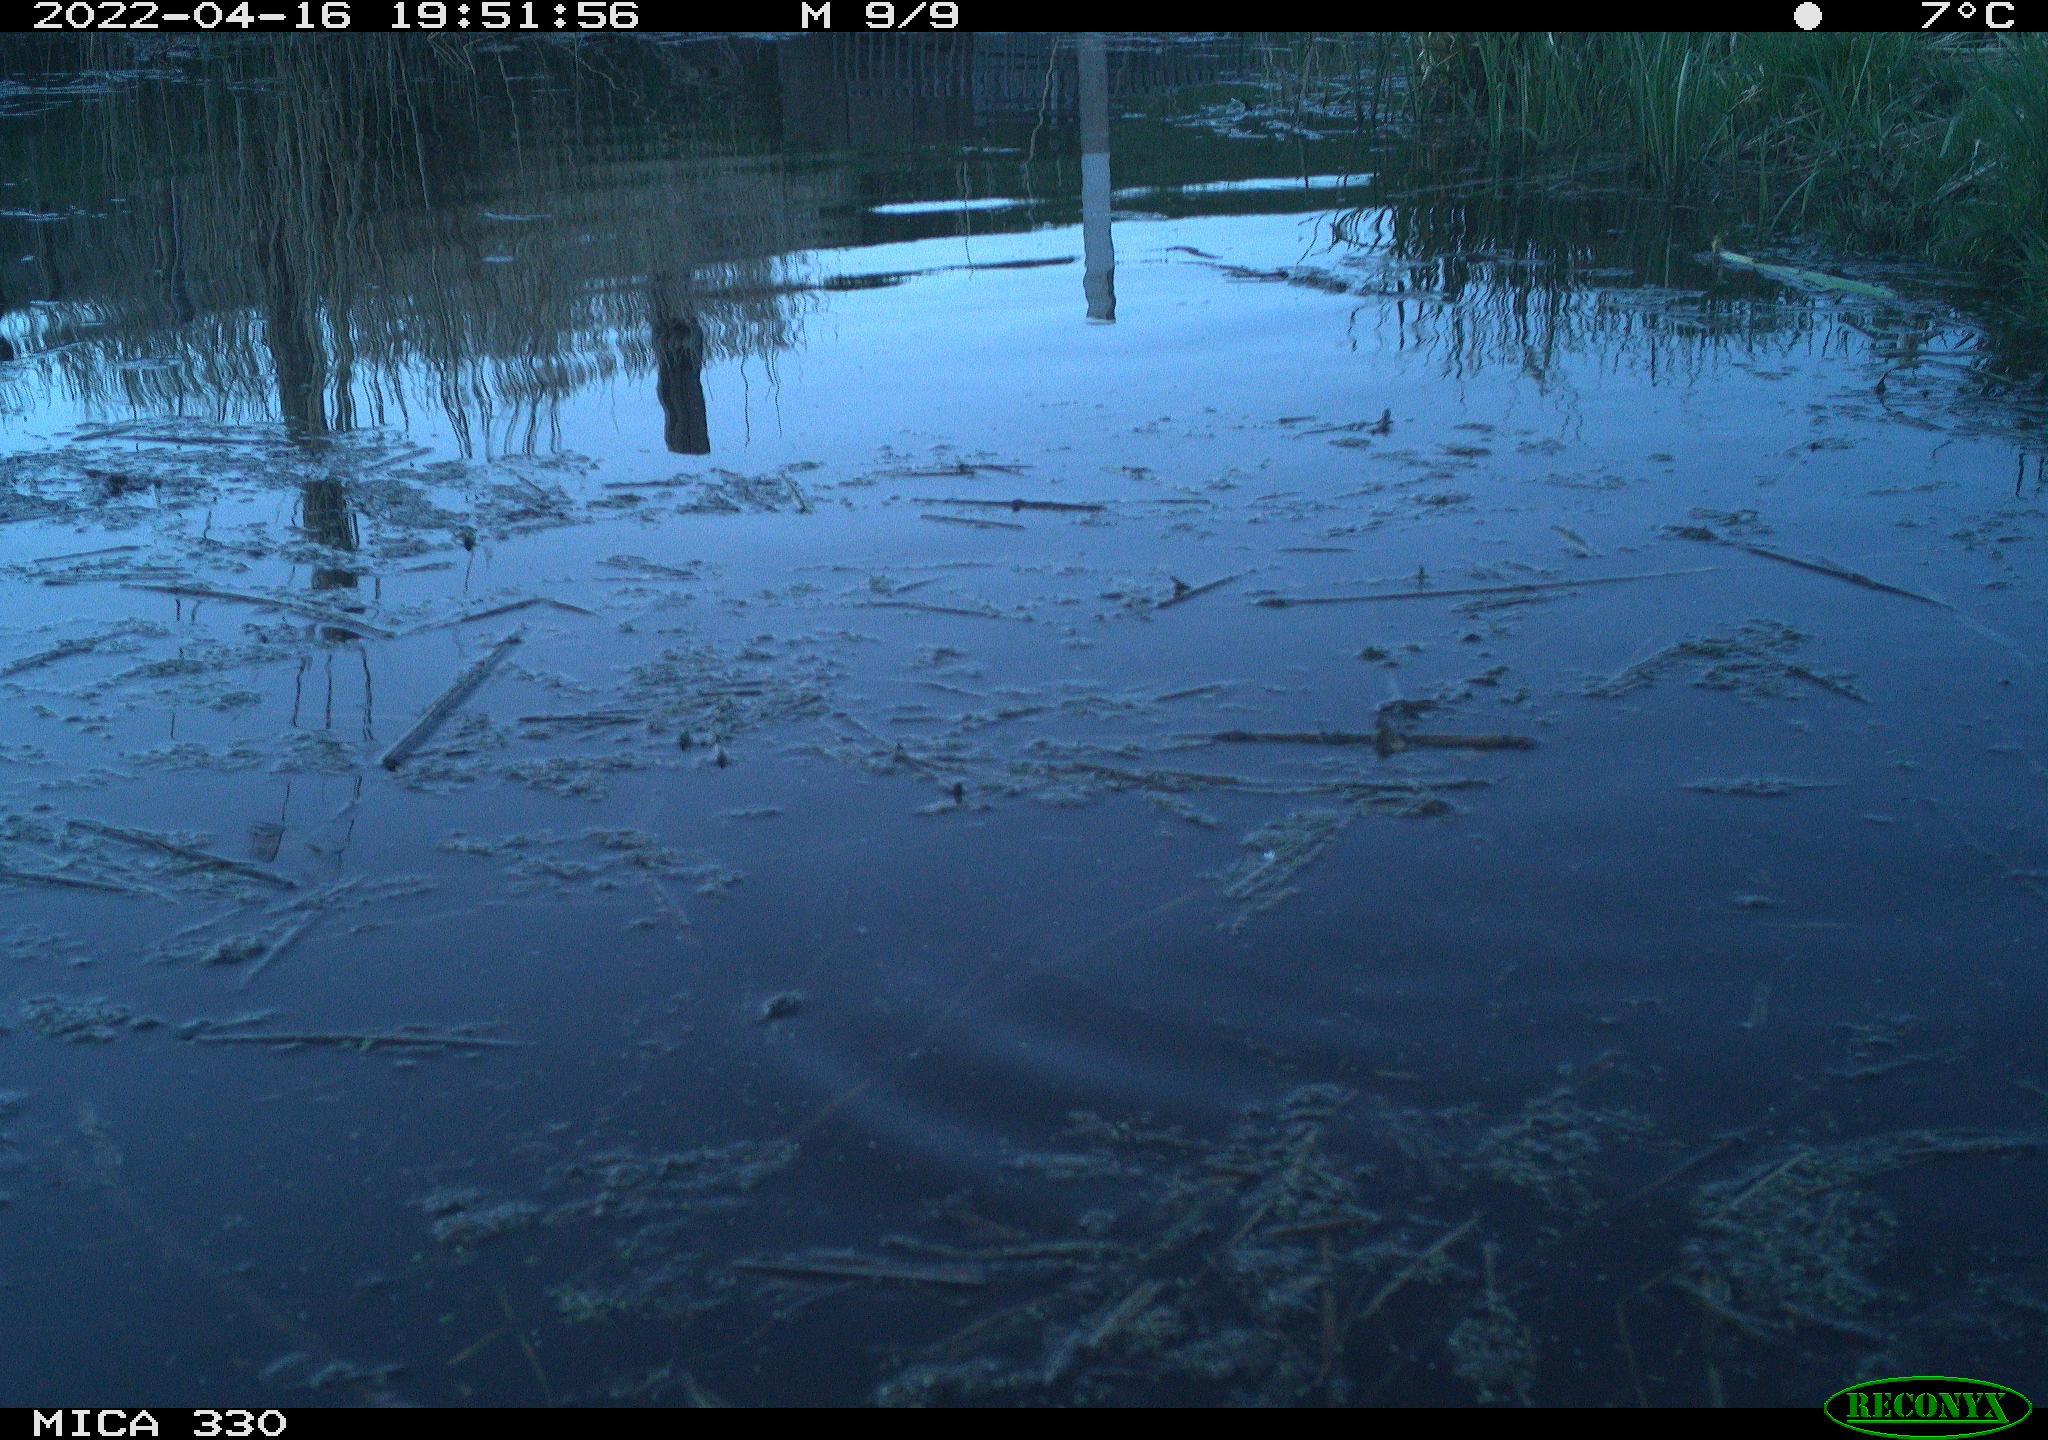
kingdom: Animalia
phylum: Chordata
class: Aves
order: Anseriformes
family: Anatidae
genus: Anas
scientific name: Anas platyrhynchos
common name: Mallard
